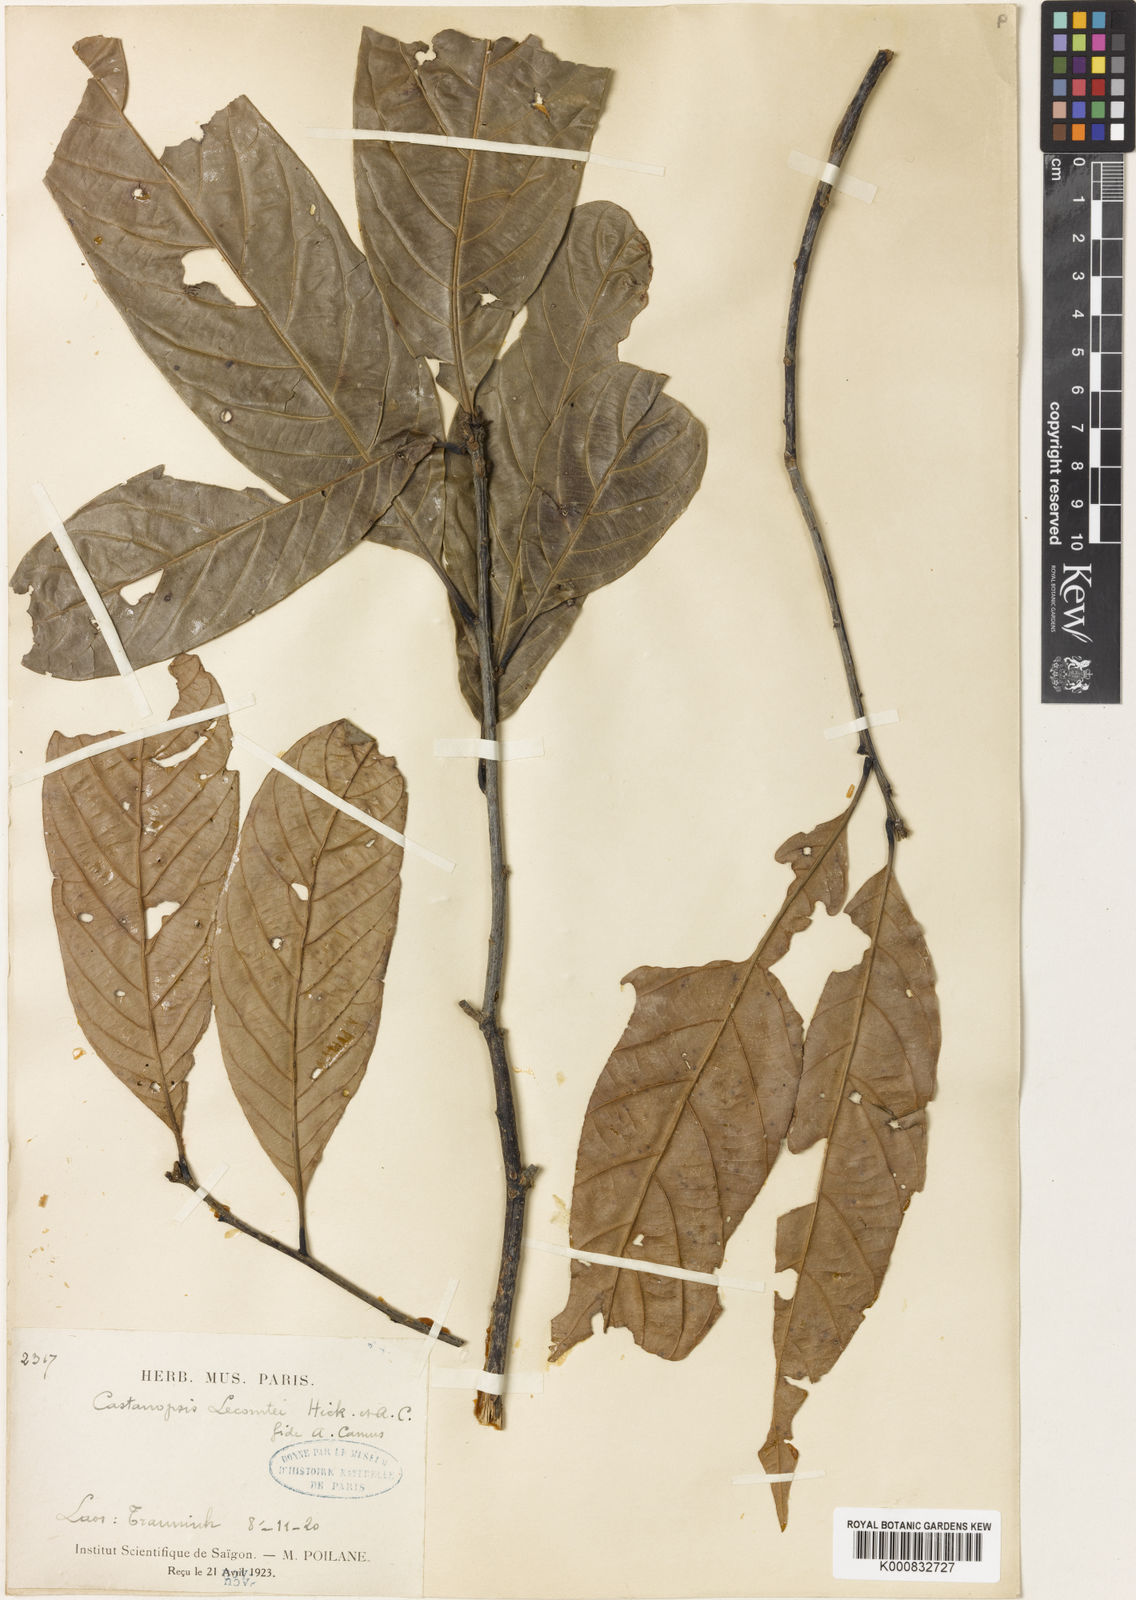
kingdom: Plantae
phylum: Tracheophyta
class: Magnoliopsida
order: Fagales
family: Fagaceae
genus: Castanopsis
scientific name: Castanopsis lecomtei
